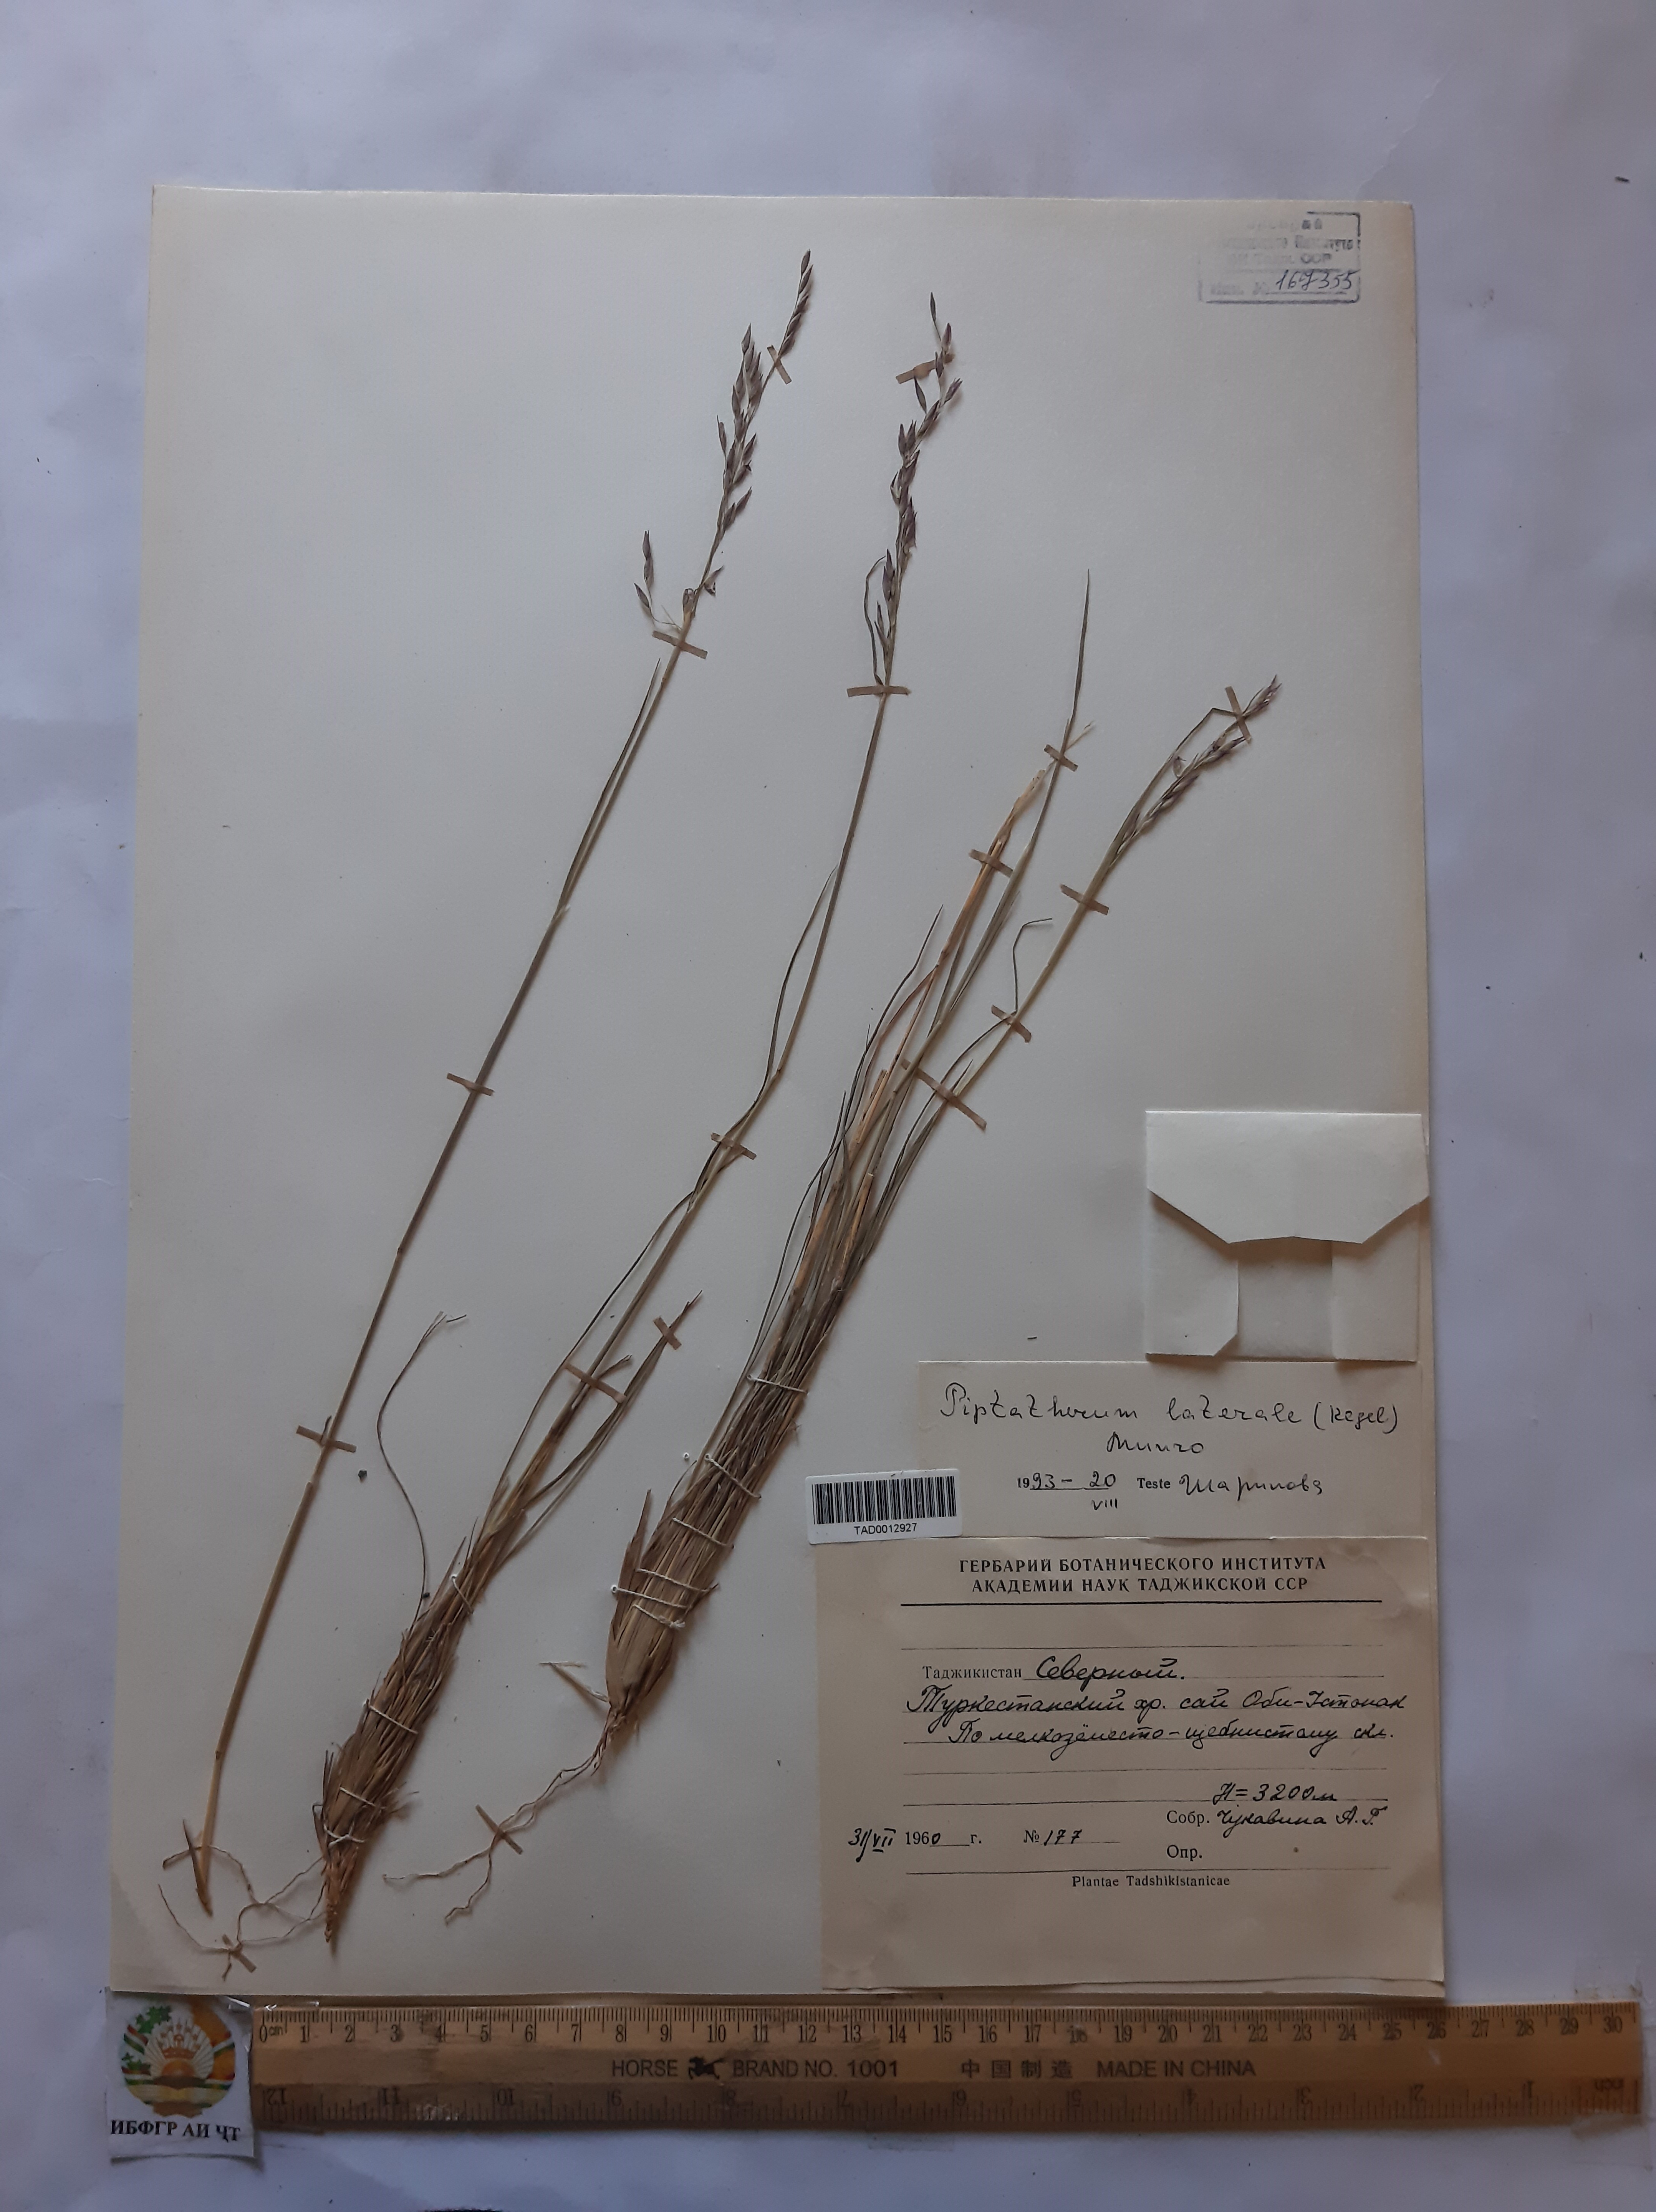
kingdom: Plantae
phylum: Tracheophyta
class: Liliopsida
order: Poales
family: Poaceae
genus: Piptatherum
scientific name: Piptatherum laterale
